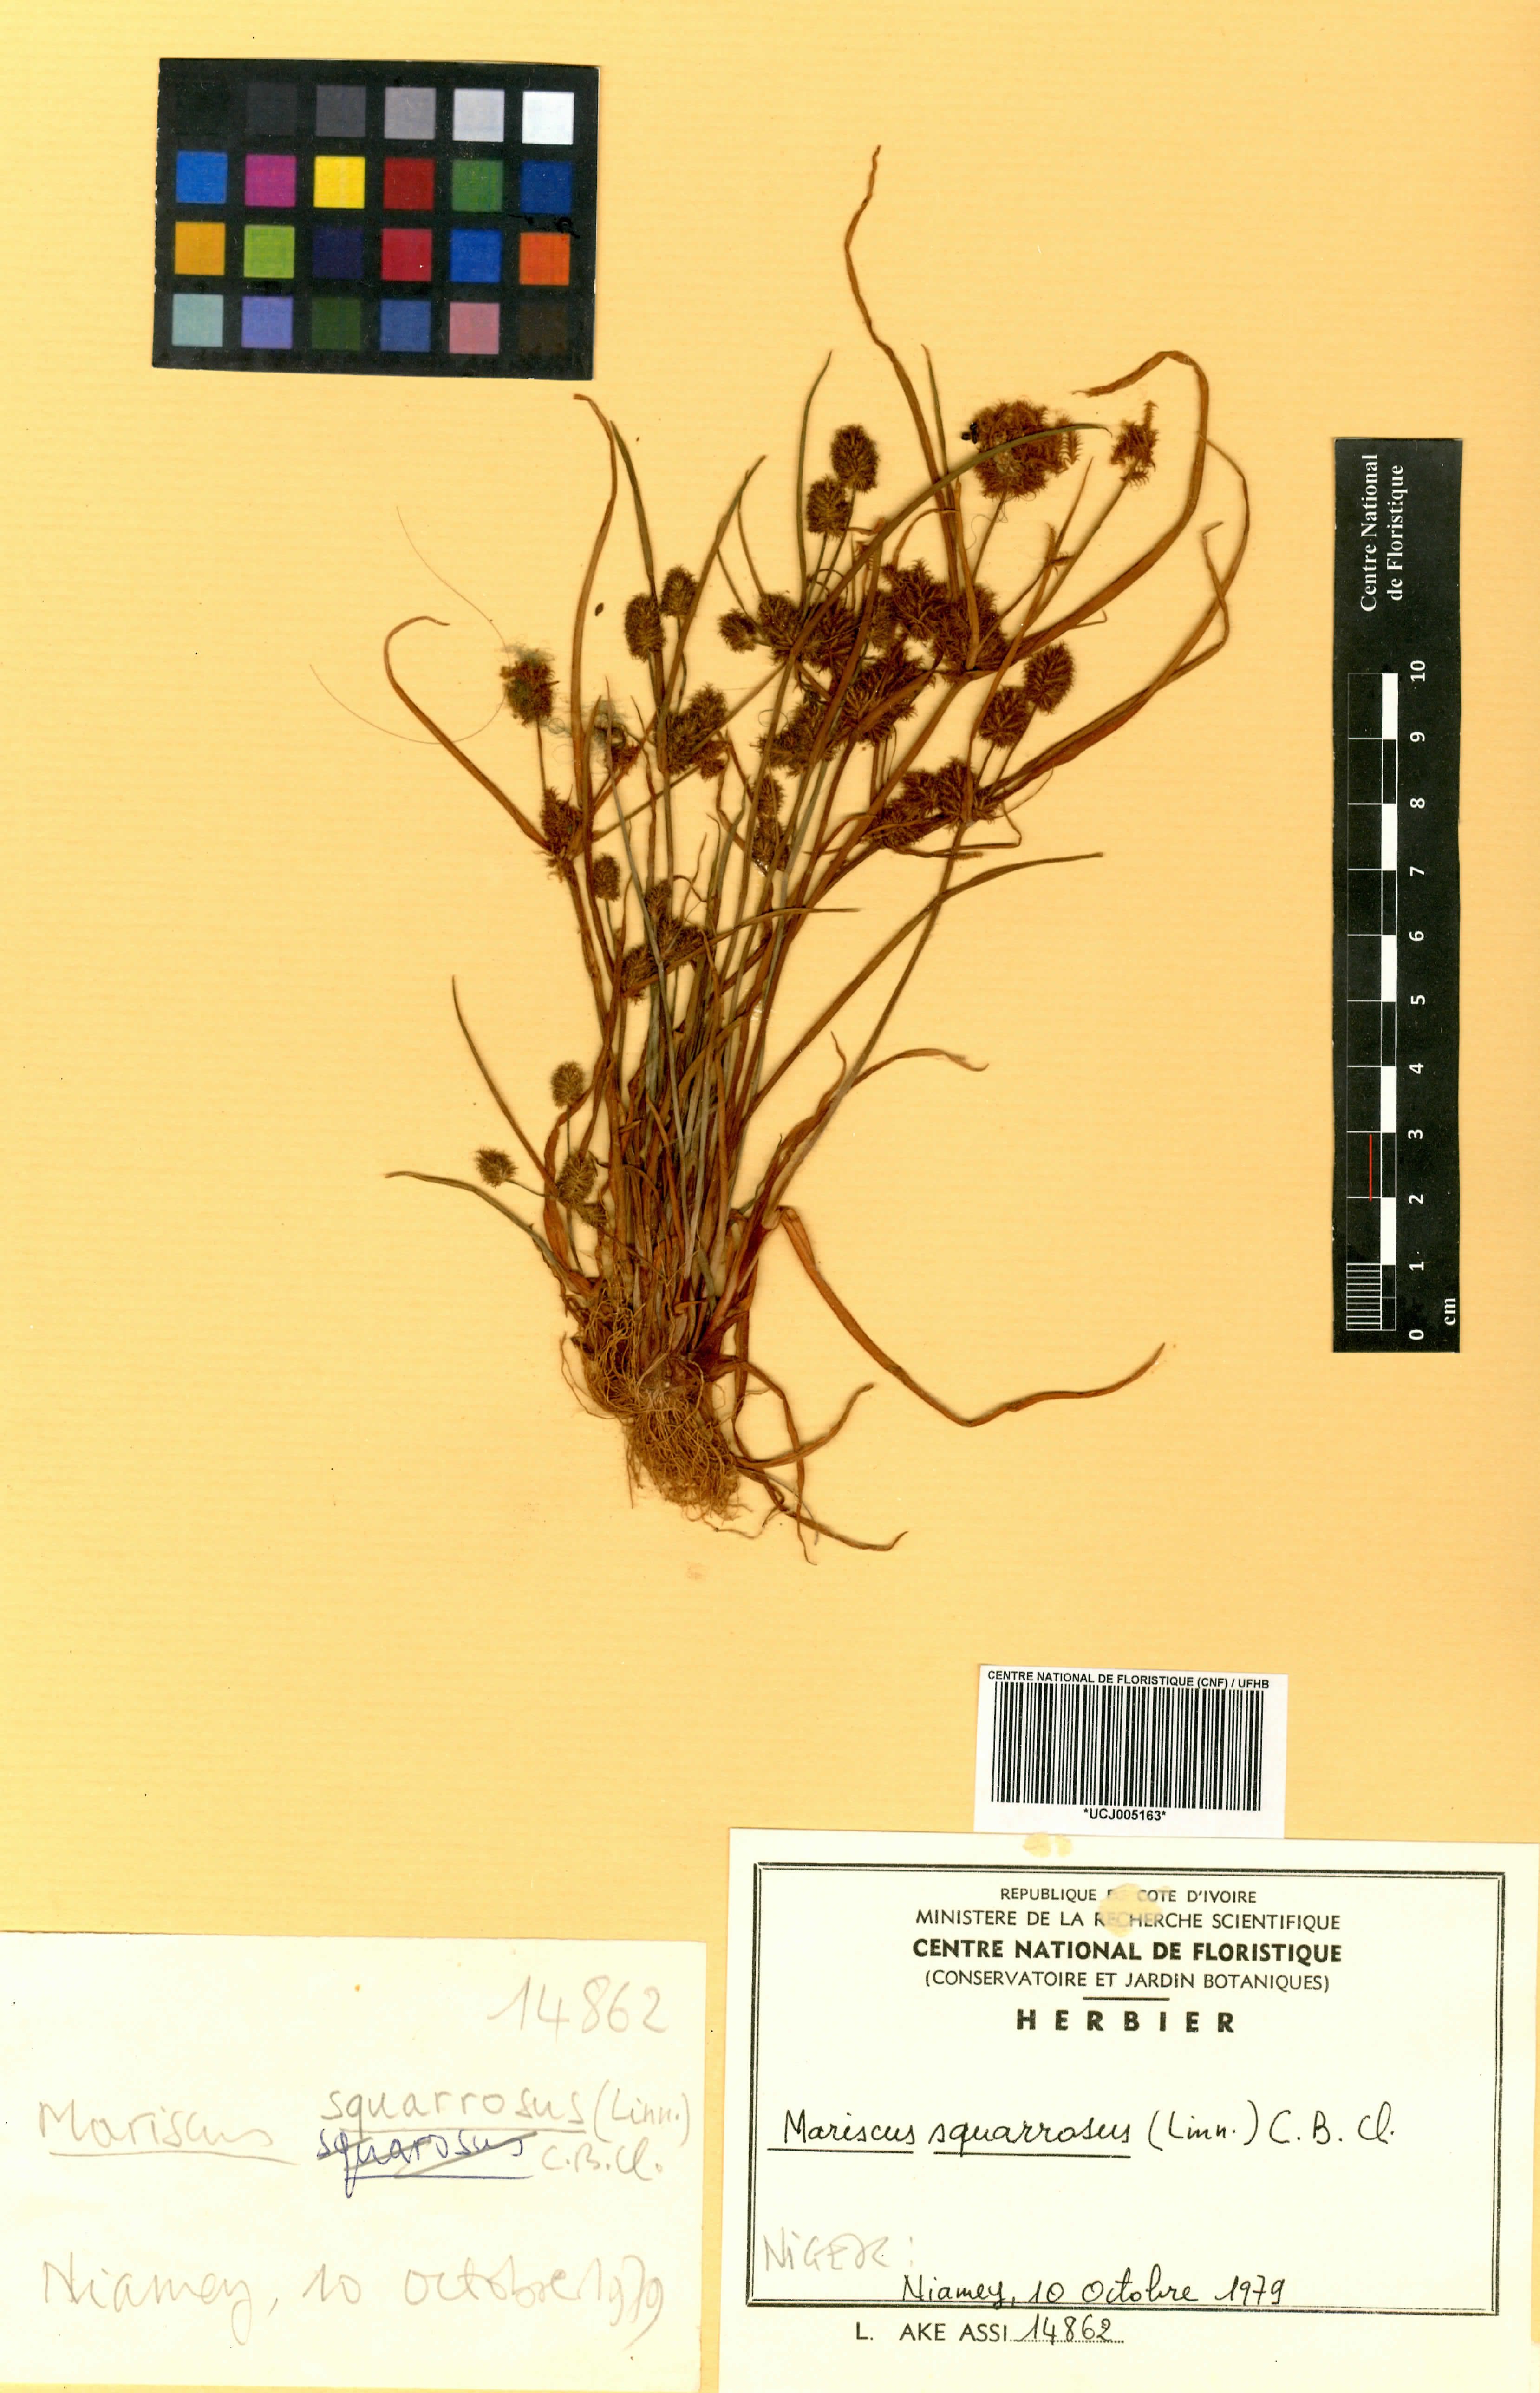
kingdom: Plantae
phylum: Tracheophyta
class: Liliopsida
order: Poales
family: Cyperaceae
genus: Cyperus
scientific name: Cyperus squarrosus
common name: Awned cyperus
